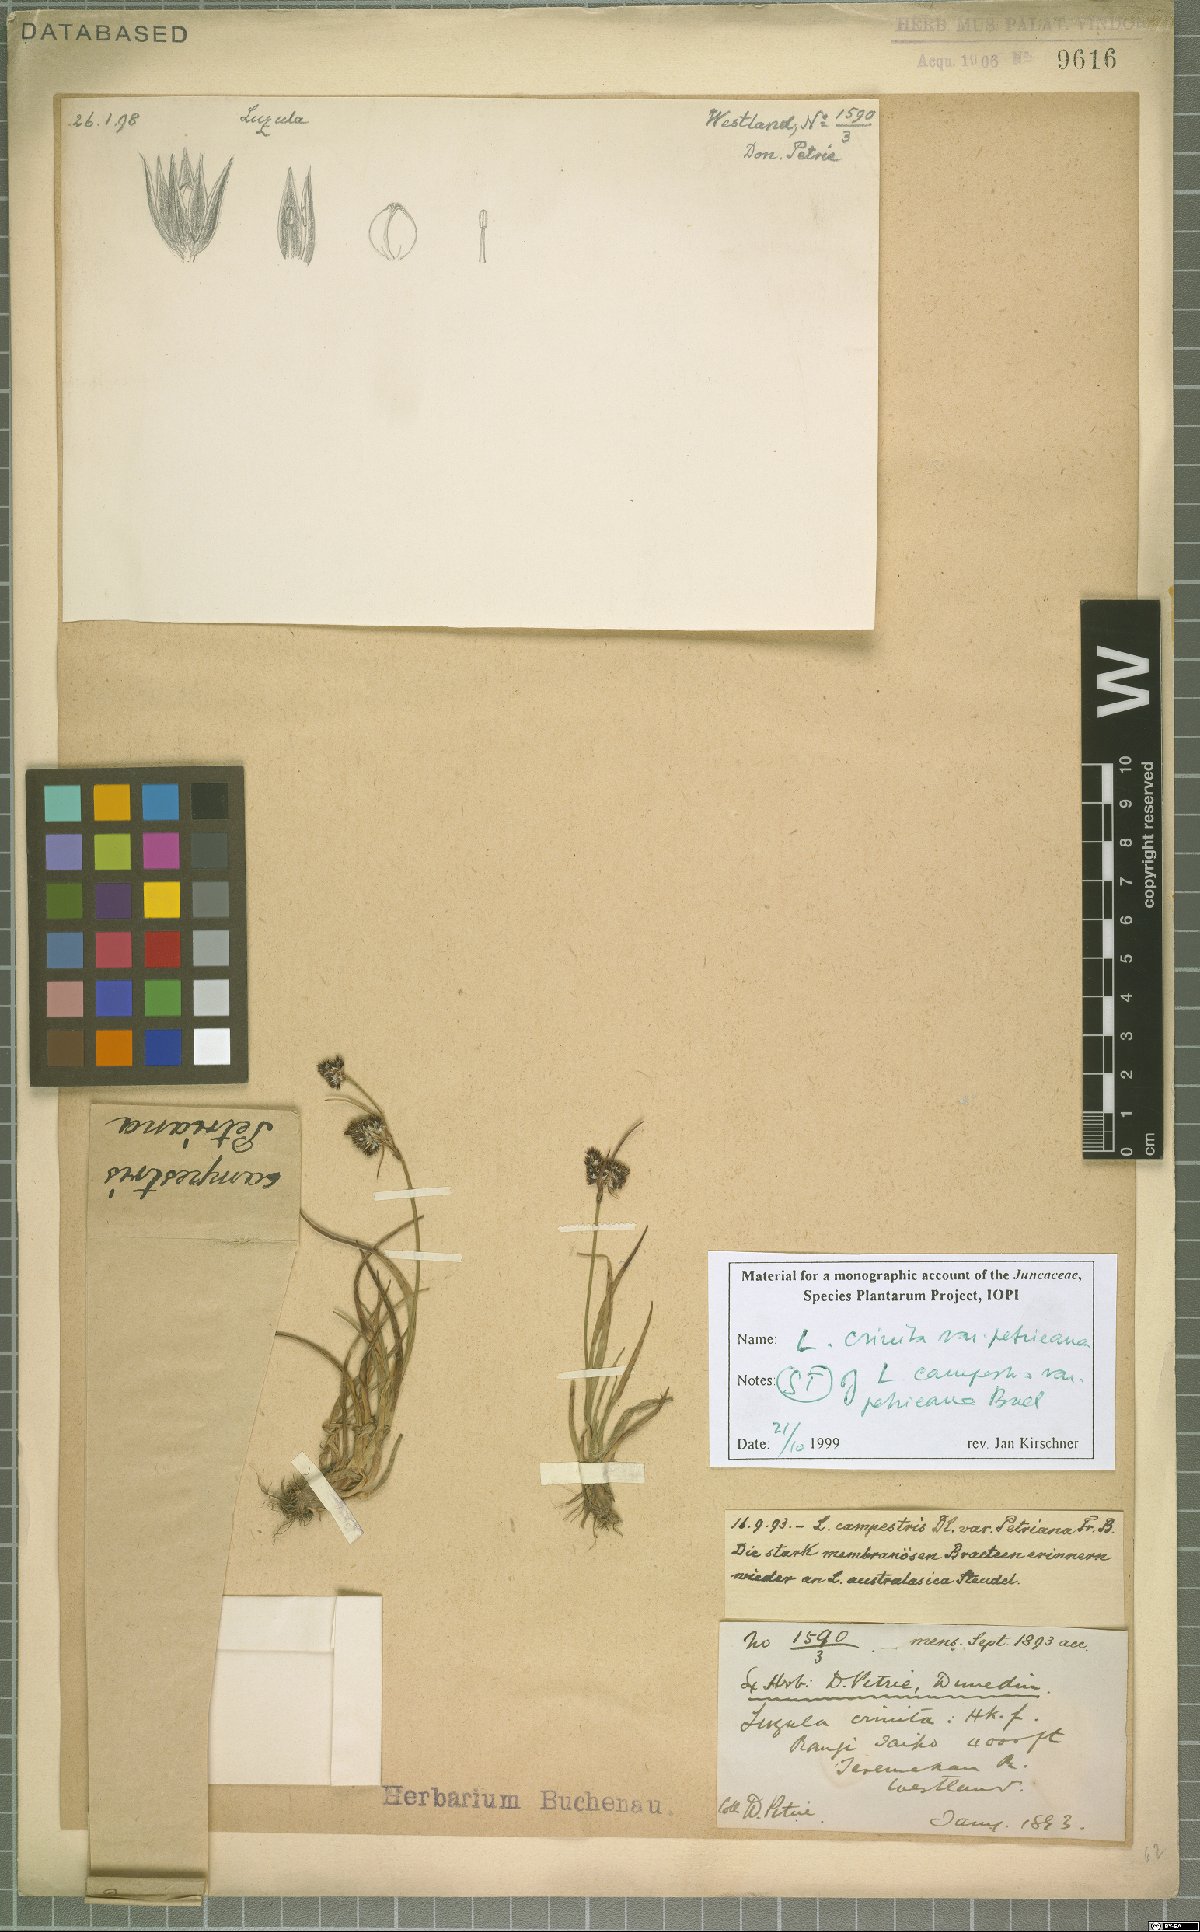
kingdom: Plantae
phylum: Tracheophyta
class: Liliopsida
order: Poales
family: Juncaceae
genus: Luzula
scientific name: Luzula crinita
